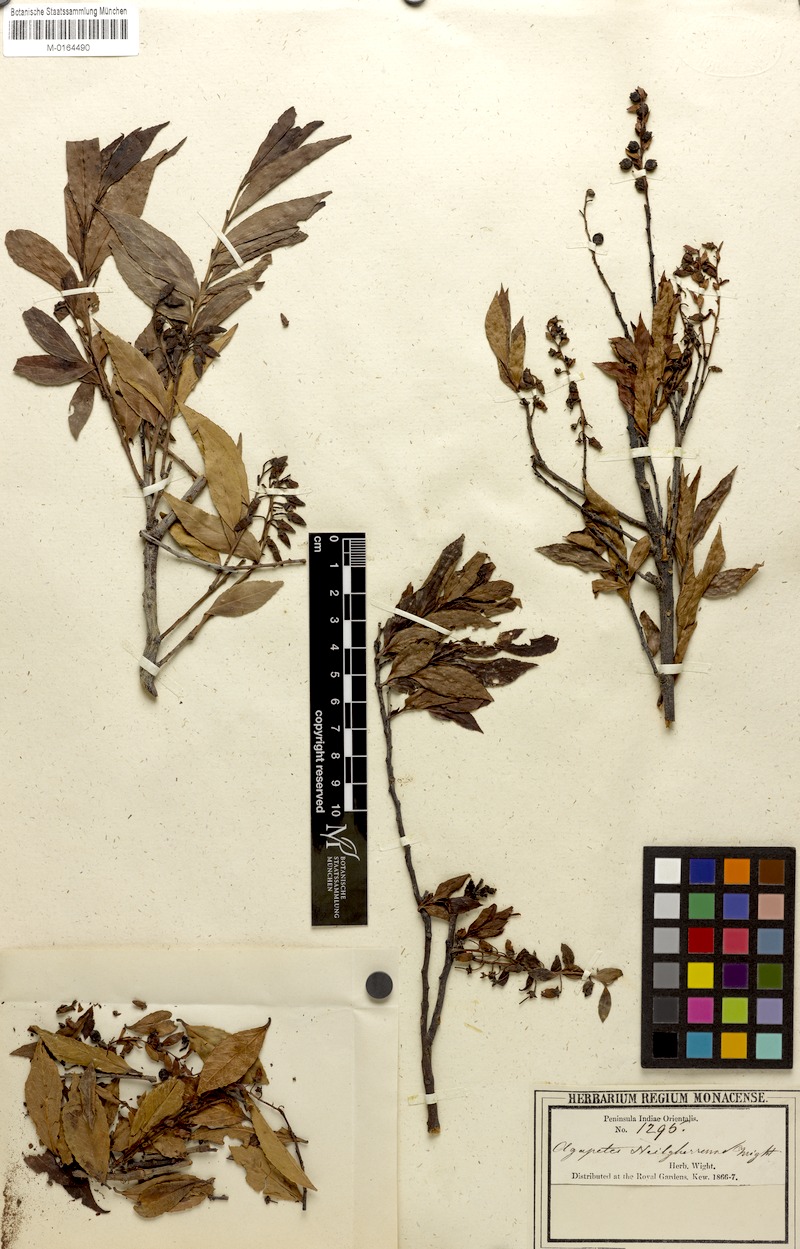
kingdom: Plantae
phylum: Tracheophyta
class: Magnoliopsida
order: Ericales
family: Ericaceae
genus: Vaccinium
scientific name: Vaccinium neilgherrense
